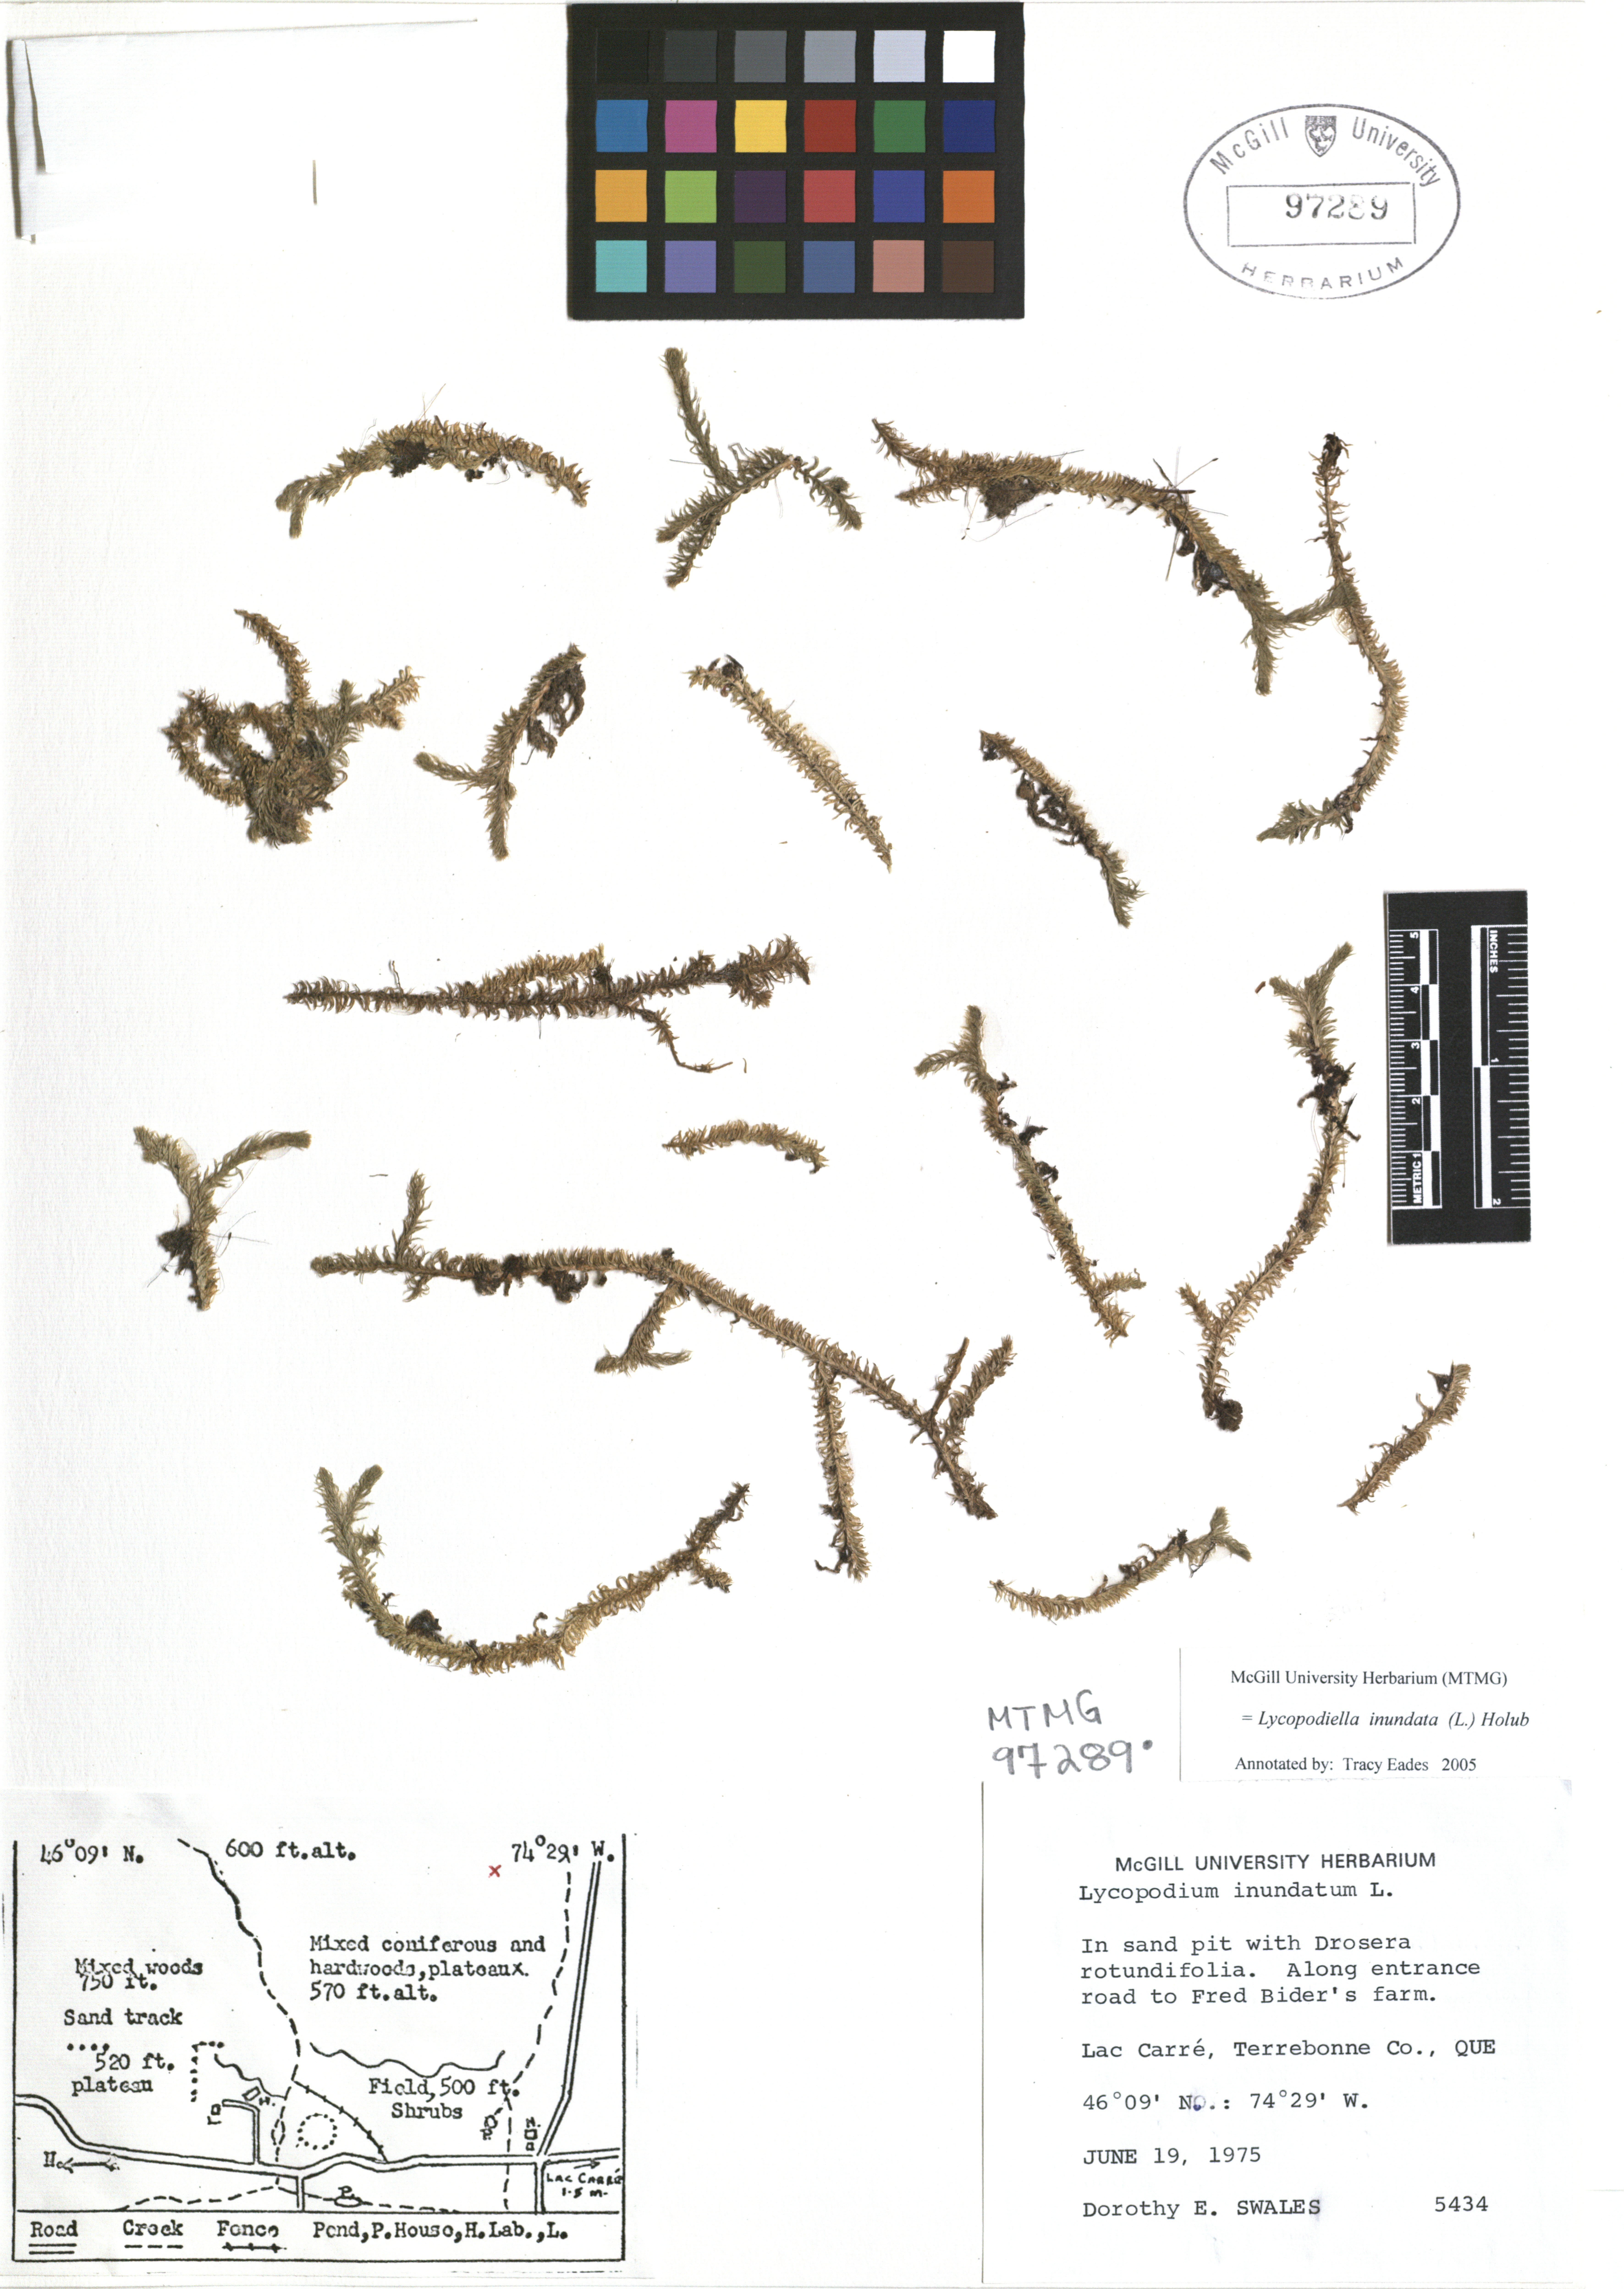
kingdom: Plantae
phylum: Tracheophyta
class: Lycopodiopsida
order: Lycopodiales
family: Lycopodiaceae
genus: Lycopodiella
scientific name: Lycopodiella inundata
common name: Marsh clubmoss
